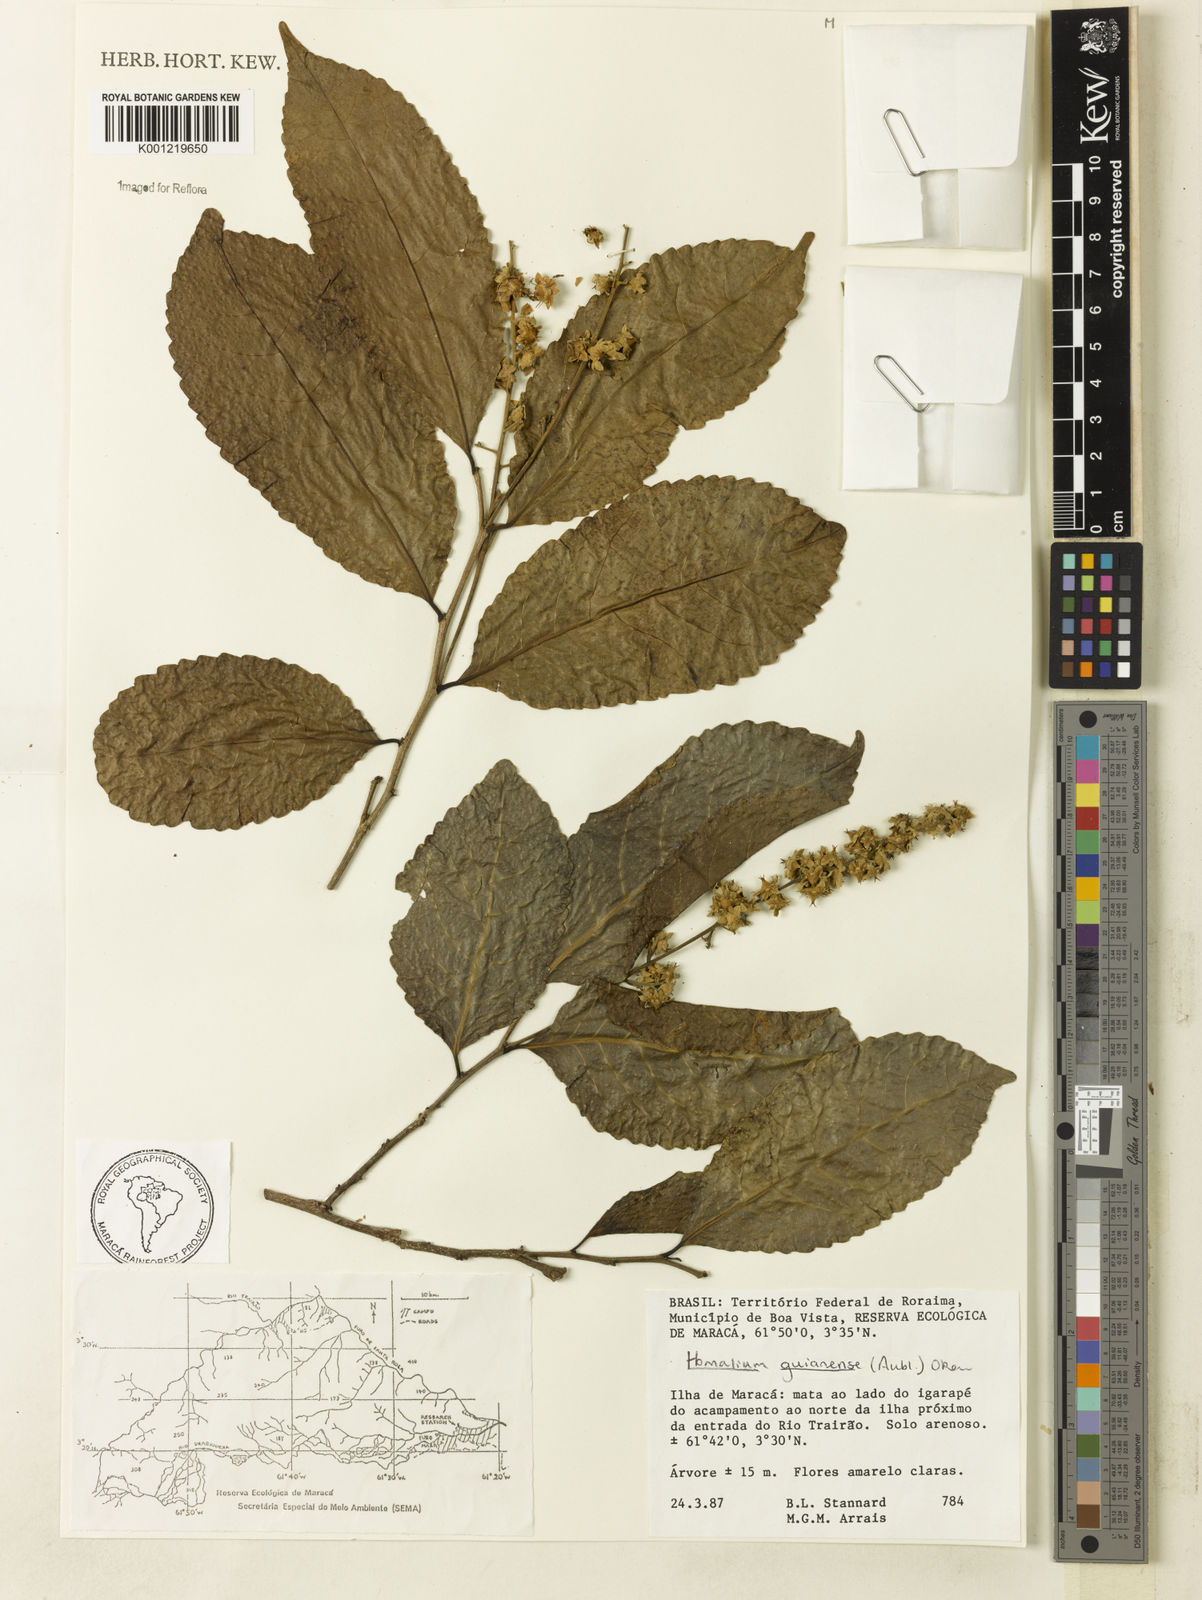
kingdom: Plantae
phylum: Tracheophyta
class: Magnoliopsida
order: Malpighiales
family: Salicaceae
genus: Homalium
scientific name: Homalium guianense
